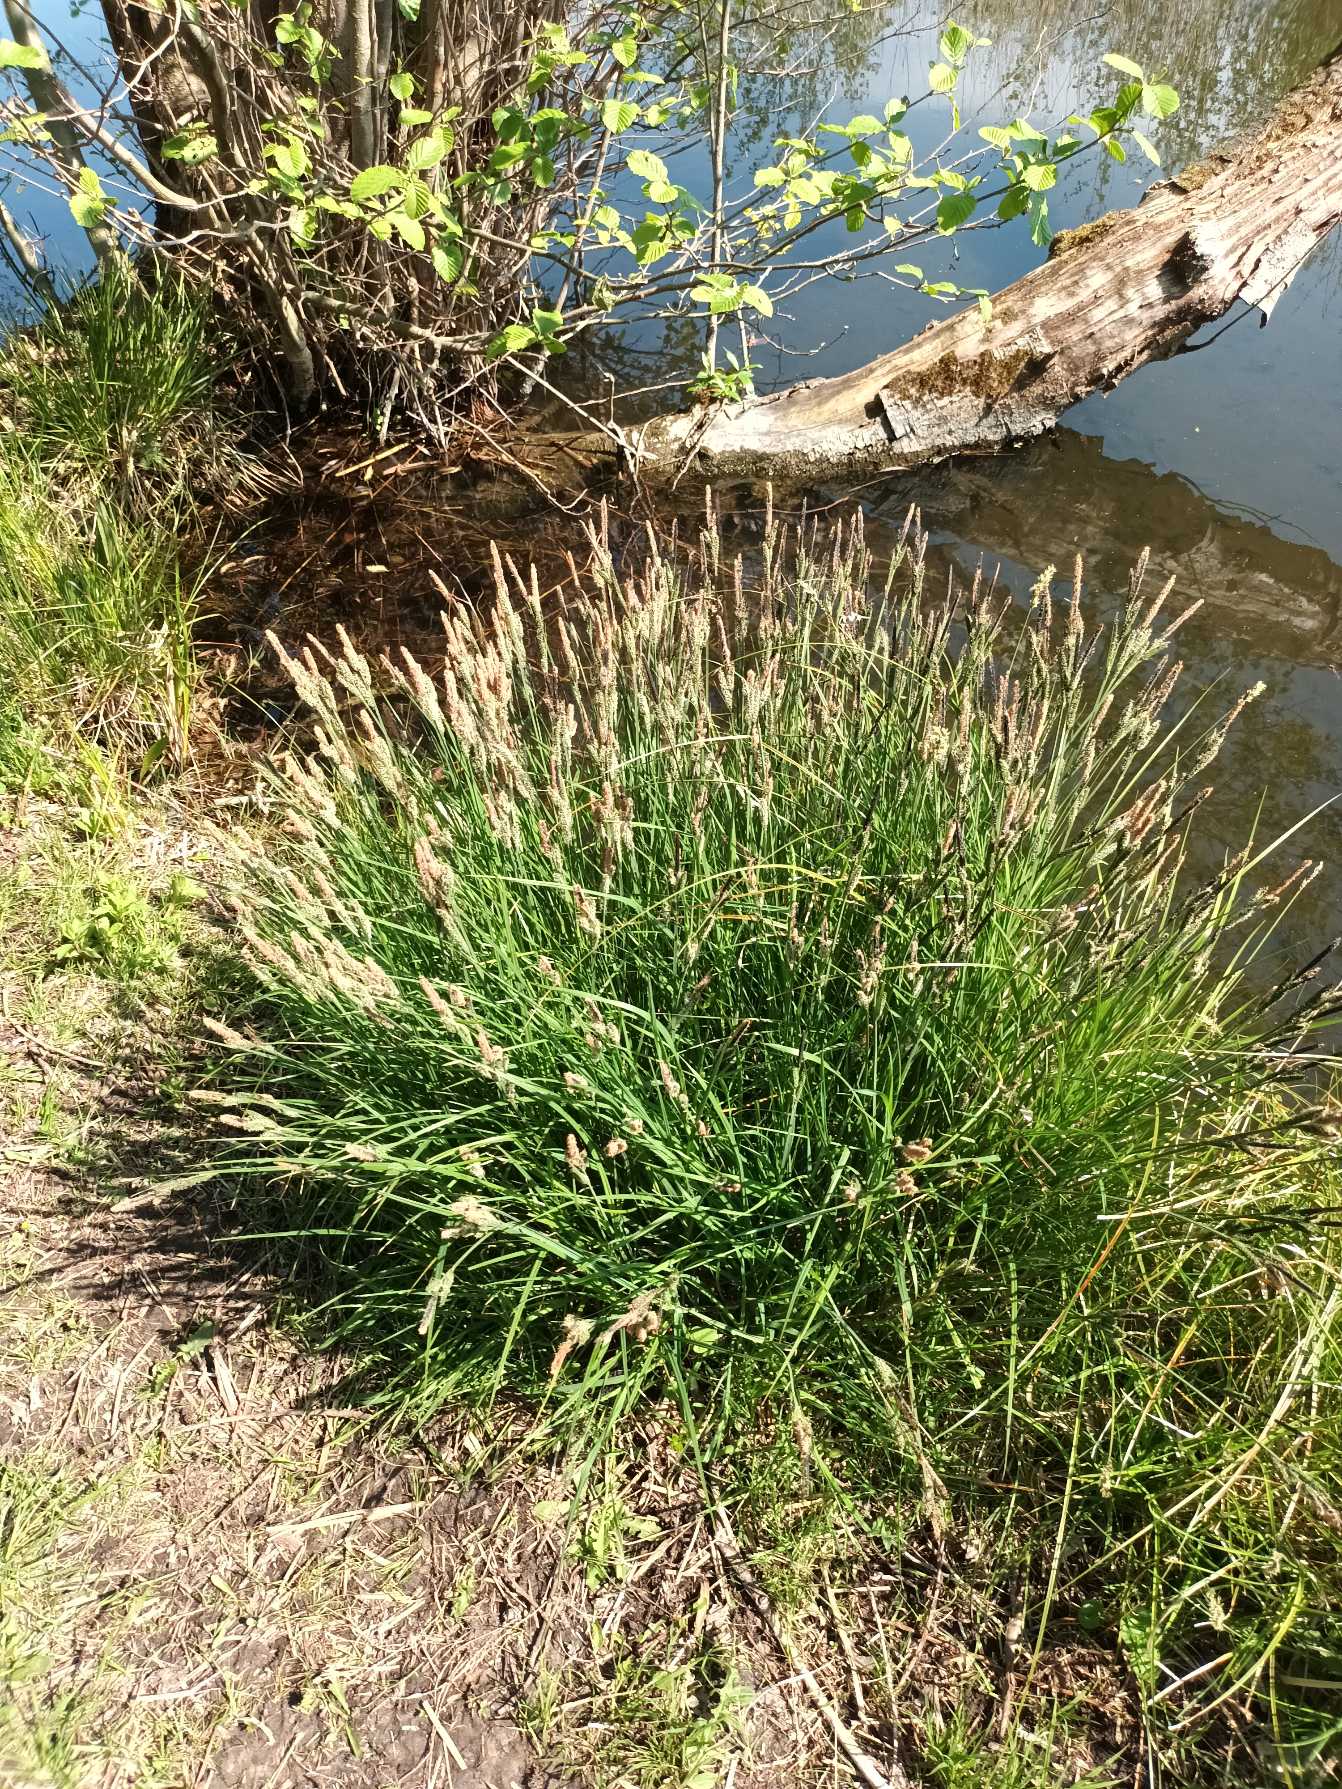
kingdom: Plantae
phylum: Tracheophyta
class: Liliopsida
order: Poales
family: Cyperaceae
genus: Carex
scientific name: Carex elata
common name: Stiv star
